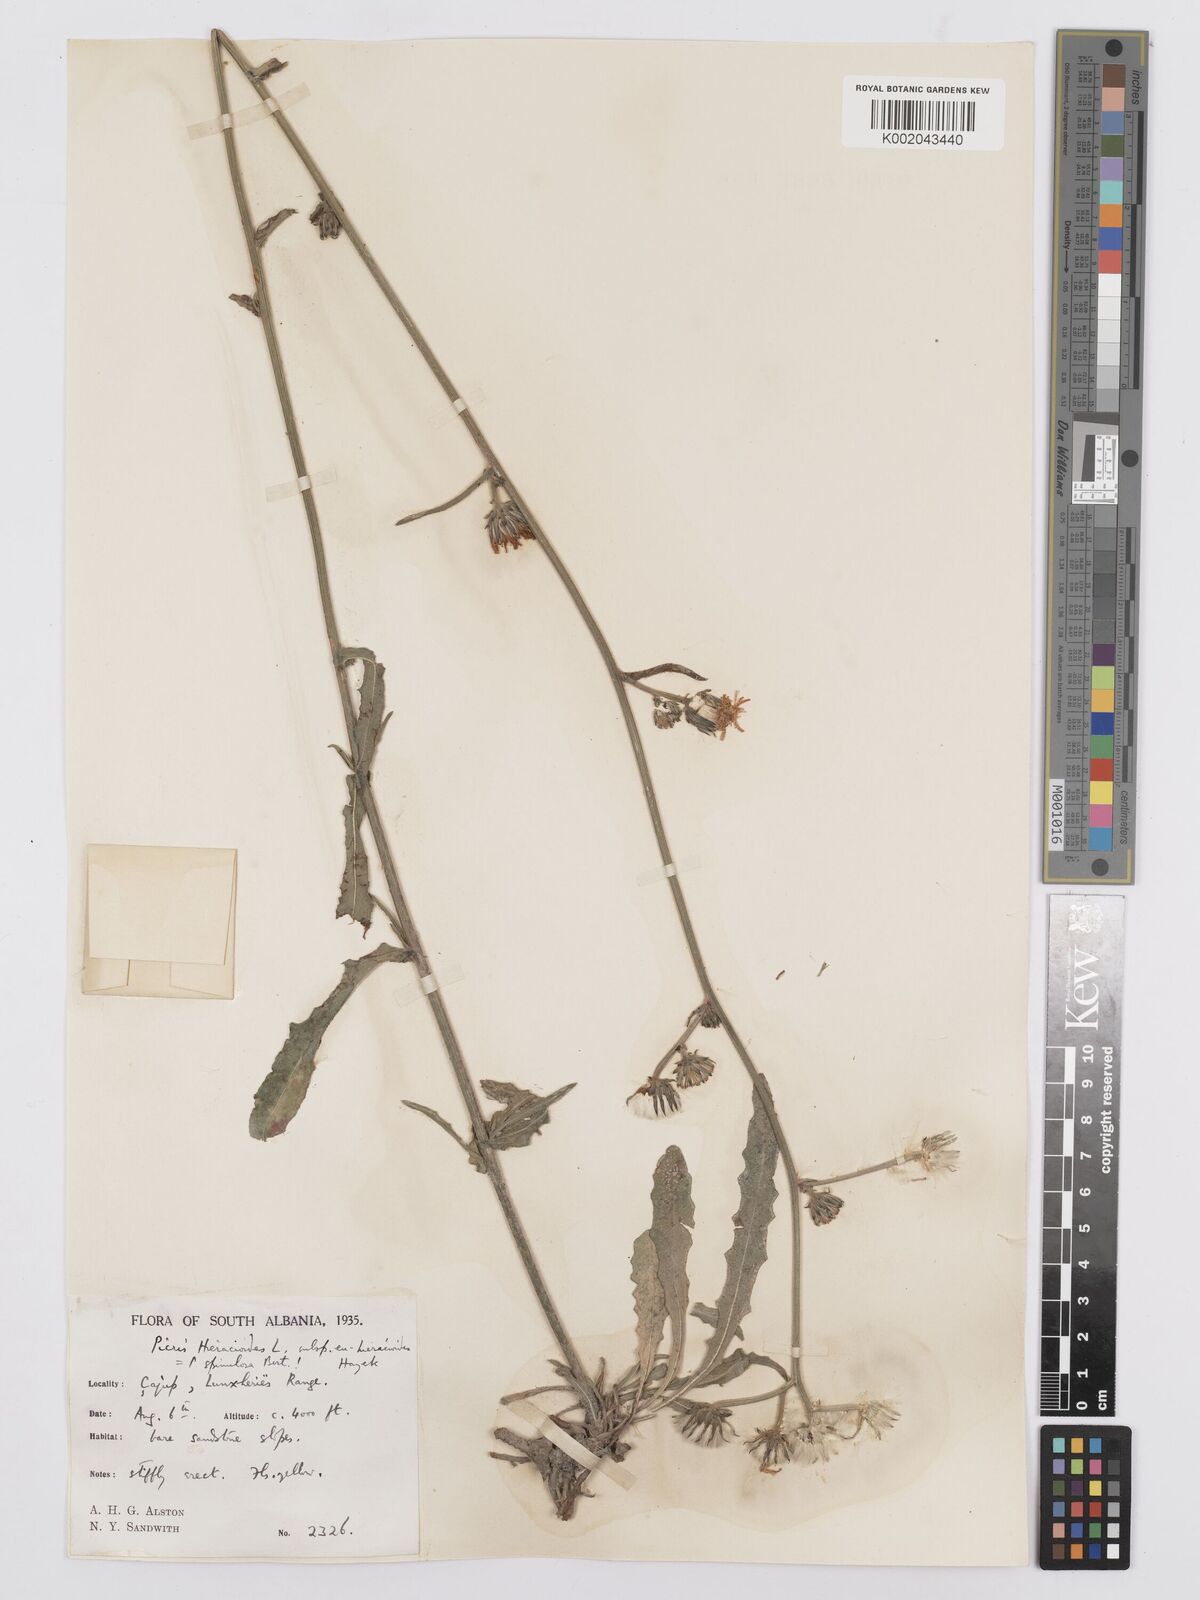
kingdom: Plantae
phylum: Tracheophyta
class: Magnoliopsida
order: Asterales
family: Asteraceae
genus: Picris
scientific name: Picris hieracioides
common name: Hawkweed oxtongue
